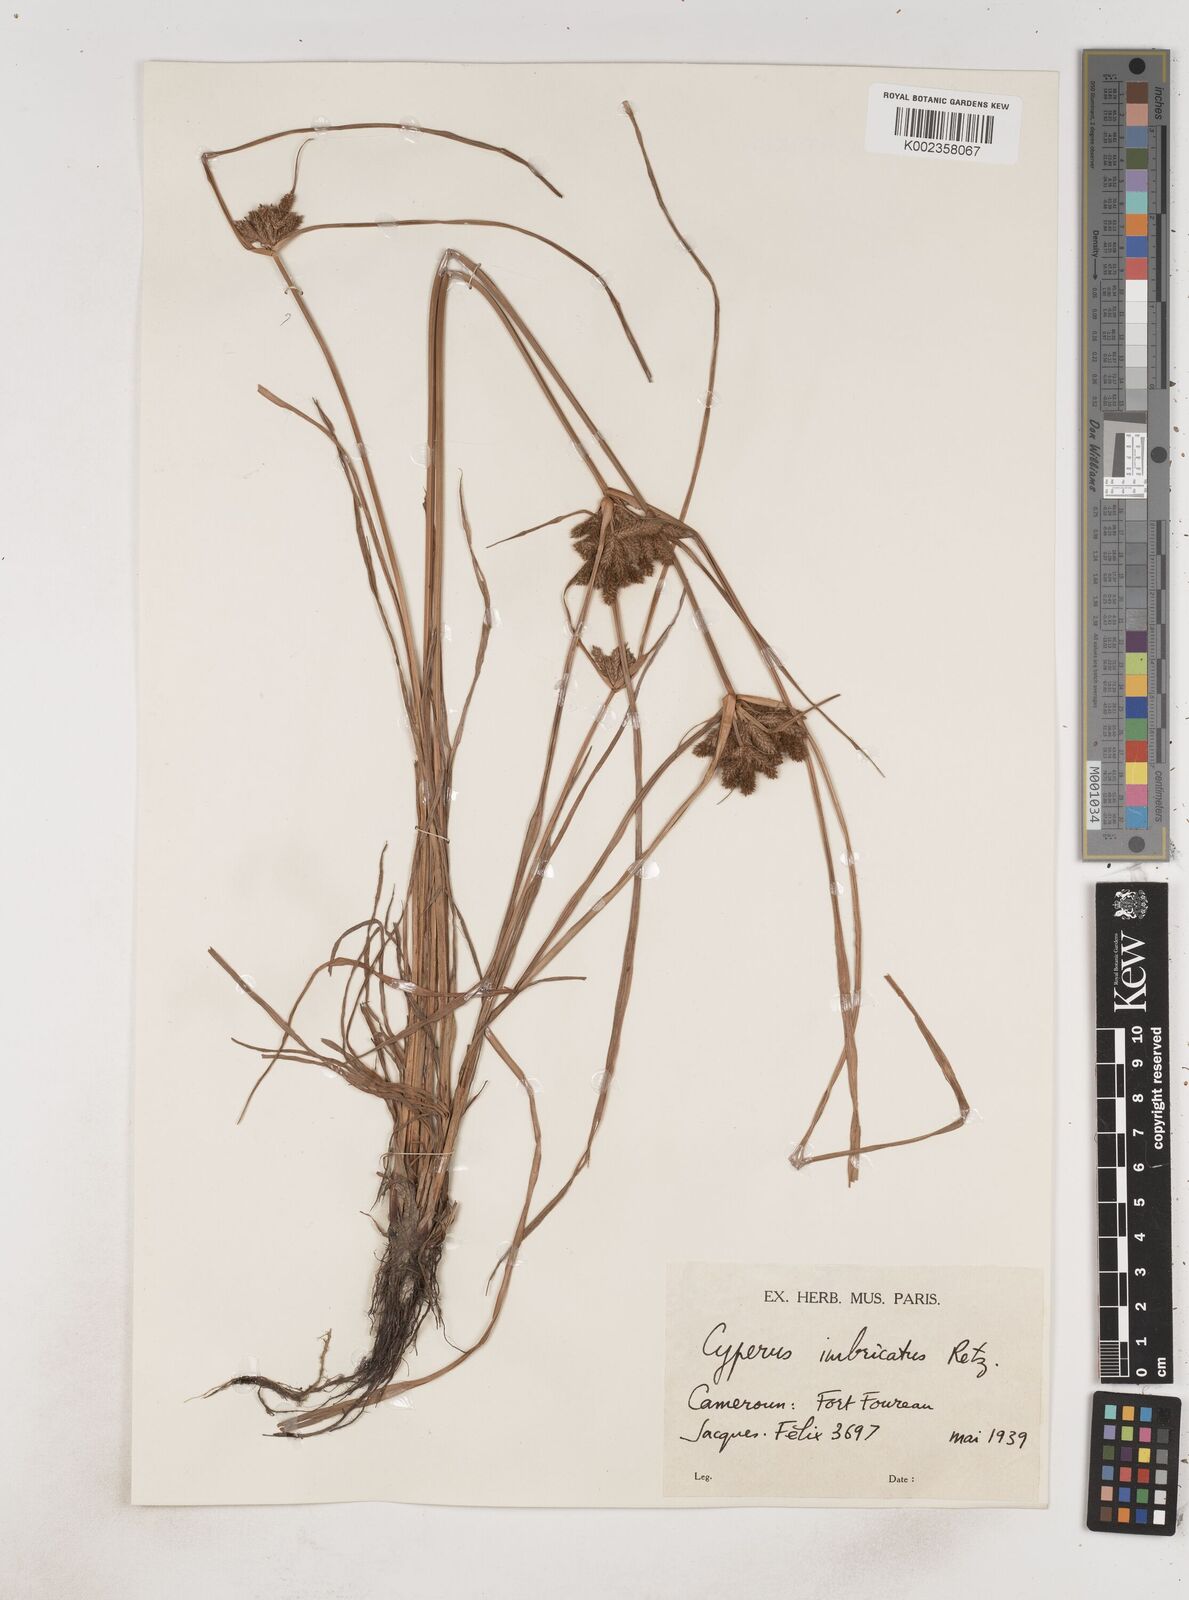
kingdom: Plantae
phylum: Tracheophyta
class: Liliopsida
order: Poales
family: Cyperaceae
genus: Cyperus
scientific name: Cyperus imbricatus
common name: Shingle flatsedge
